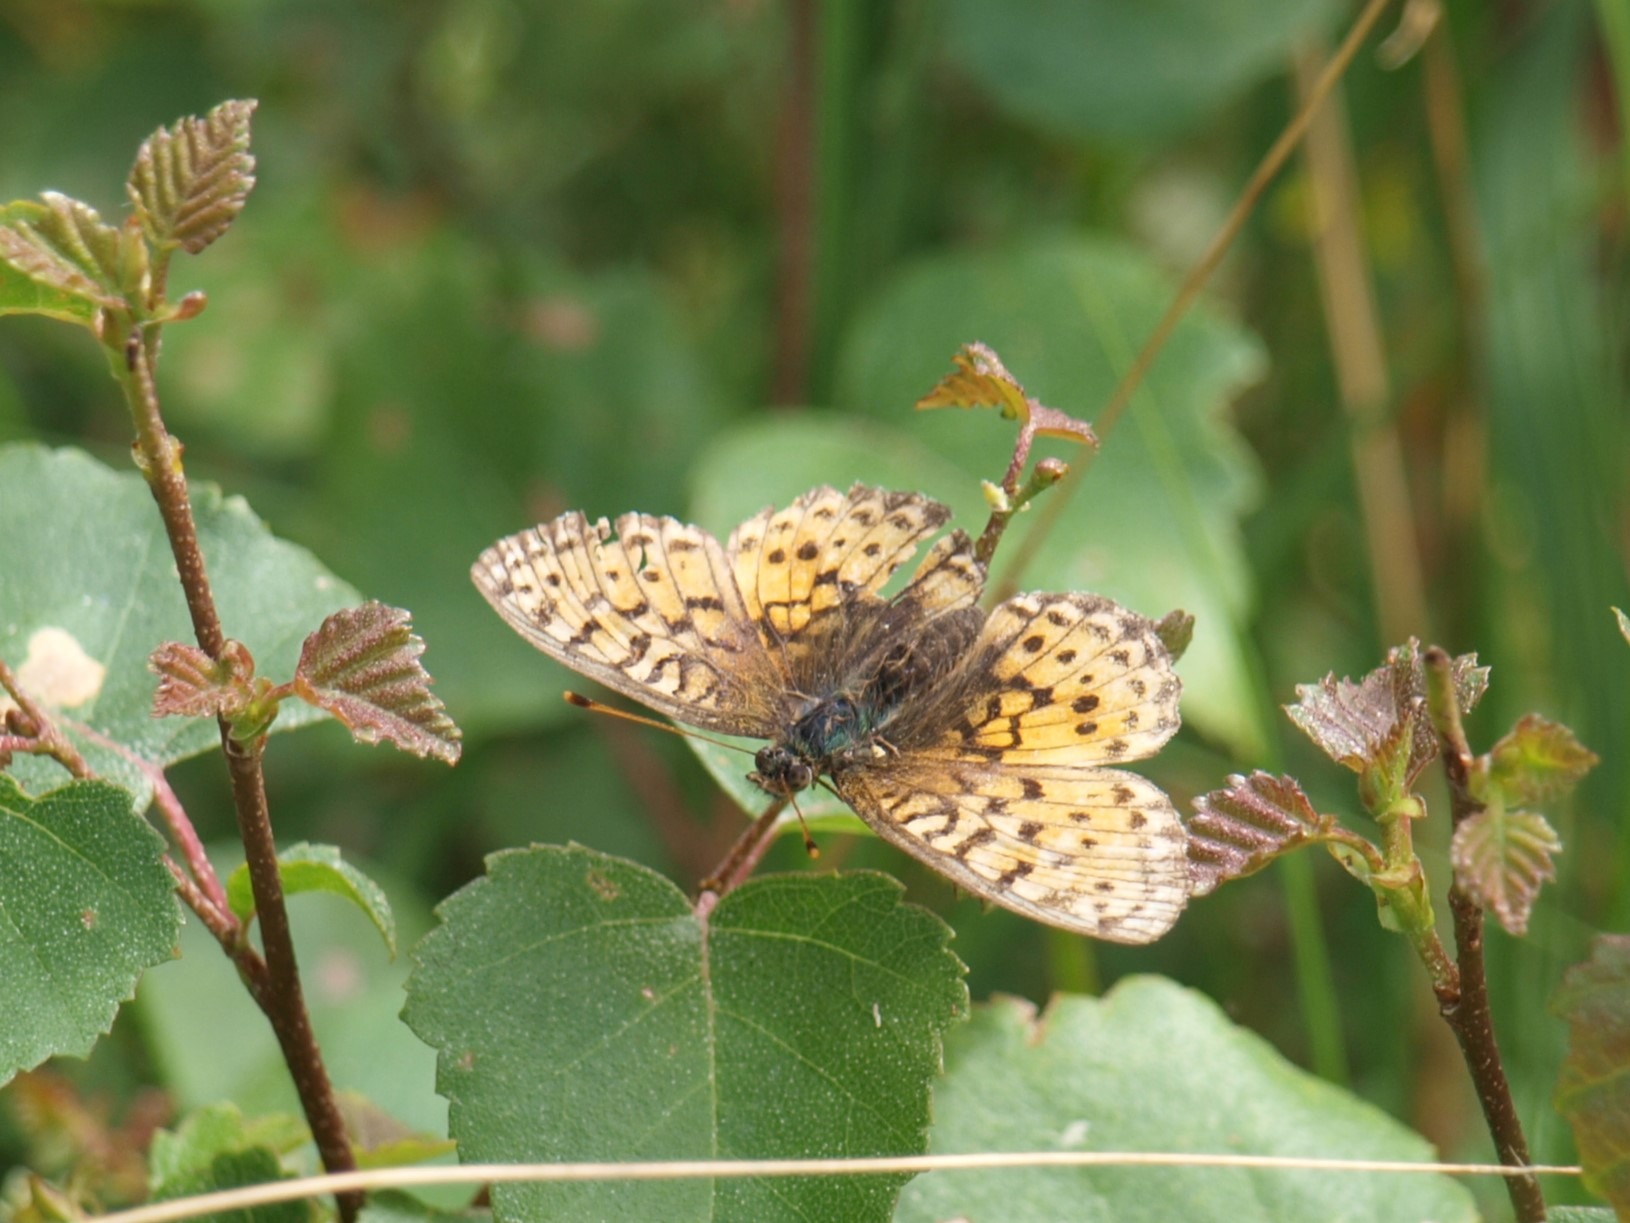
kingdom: Animalia
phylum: Arthropoda
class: Insecta
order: Lepidoptera
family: Nymphalidae
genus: Brenthis
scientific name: Brenthis ino
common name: Engperlemorsommerfugl
